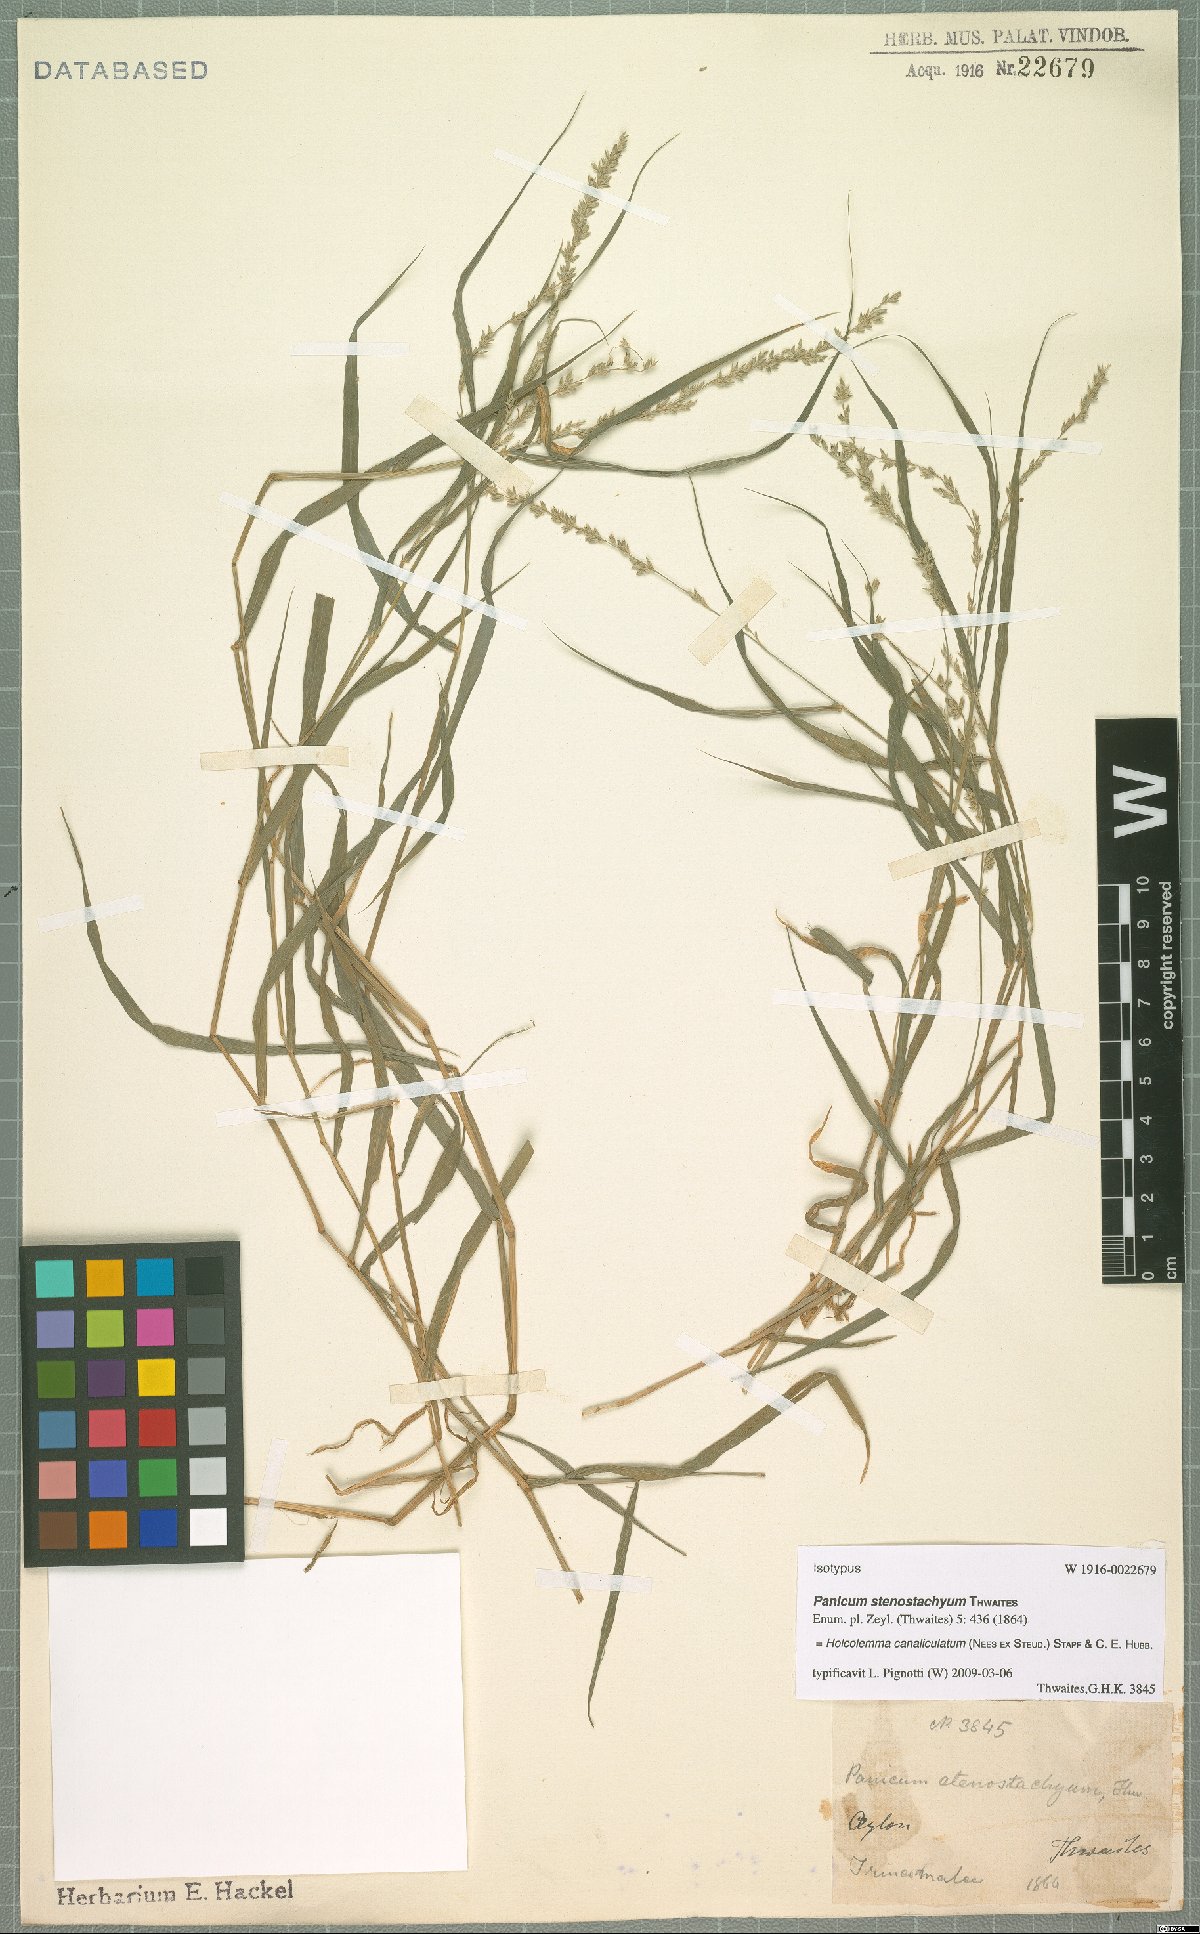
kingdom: Plantae
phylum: Tracheophyta
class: Liliopsida
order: Poales
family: Poaceae
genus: Holcolemma
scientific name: Holcolemma canaliculatum
